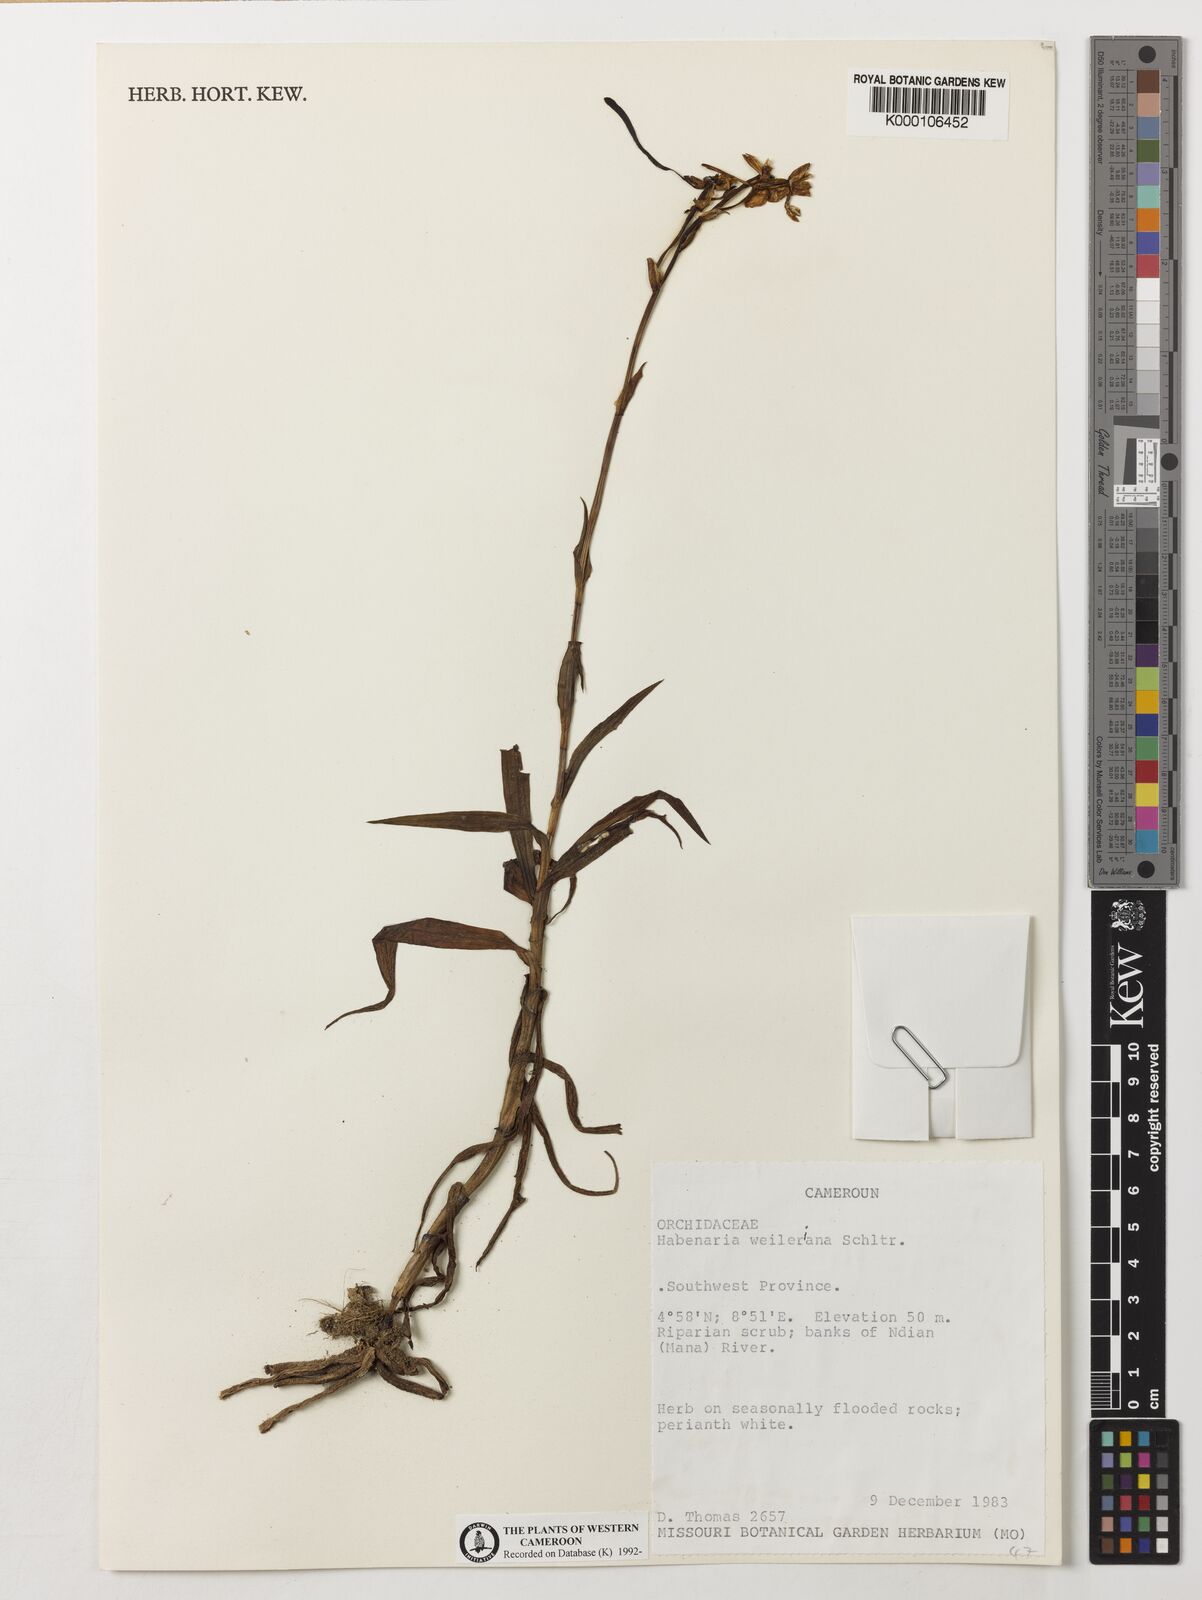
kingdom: Plantae
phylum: Tracheophyta
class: Liliopsida
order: Asparagales
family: Orchidaceae
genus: Habenaria
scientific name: Habenaria weileriana
